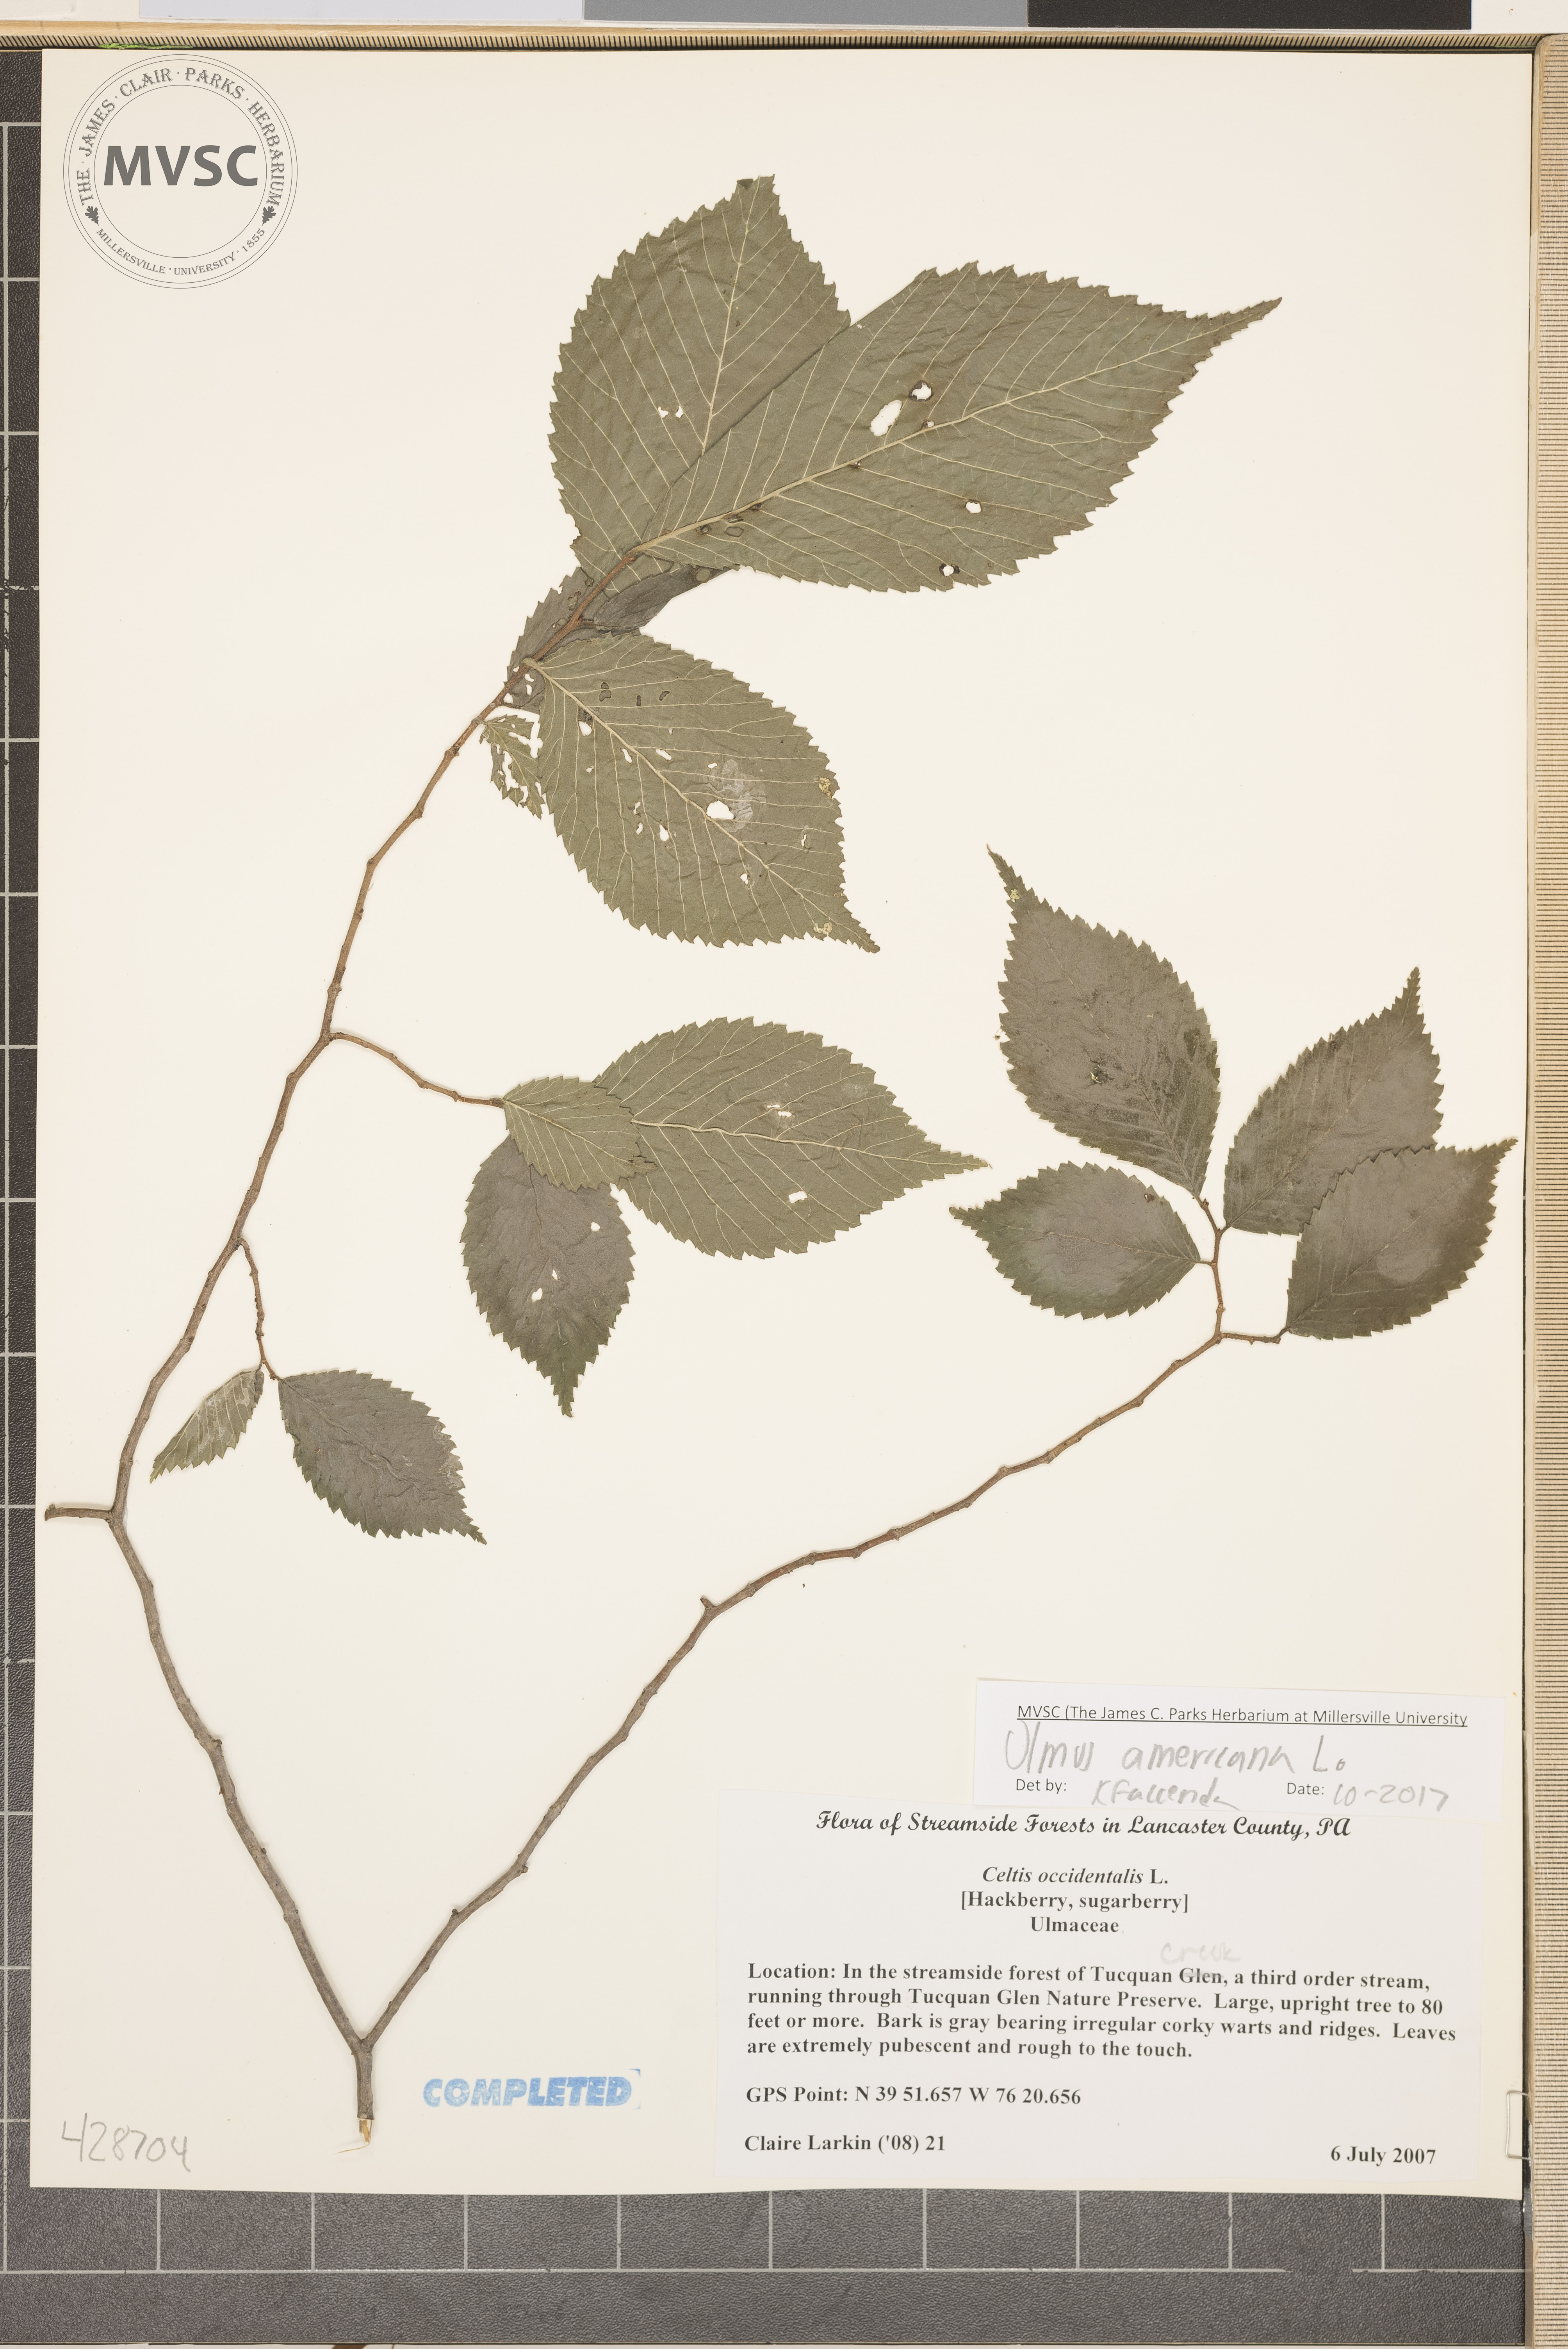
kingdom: Plantae
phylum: Tracheophyta
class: Magnoliopsida
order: Rosales
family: Ulmaceae
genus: Ulmus
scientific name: Ulmus americana
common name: American elm
